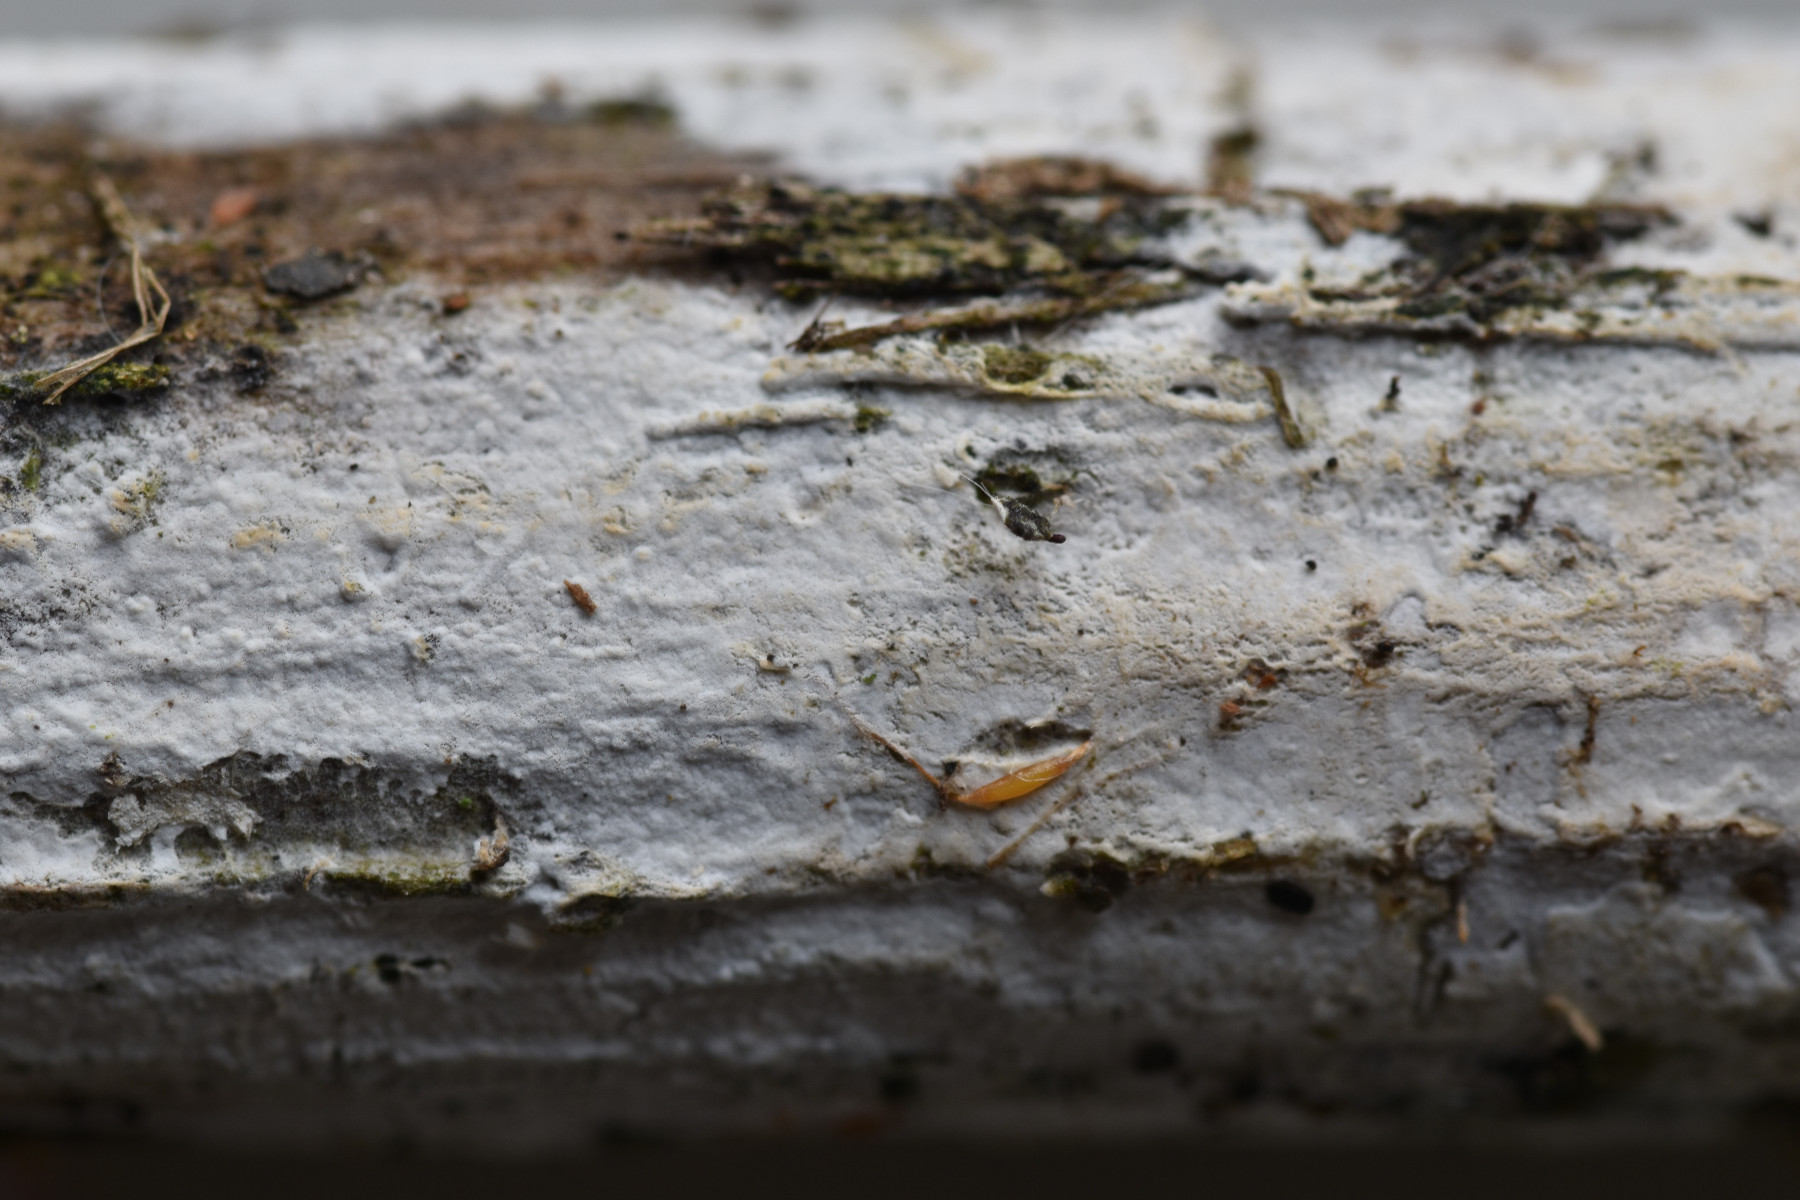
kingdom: Fungi
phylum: Basidiomycota
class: Agaricomycetes
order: Corticiales
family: Corticiaceae
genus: Lyomyces
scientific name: Lyomyces sambuci
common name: almindelig hyldehinde
